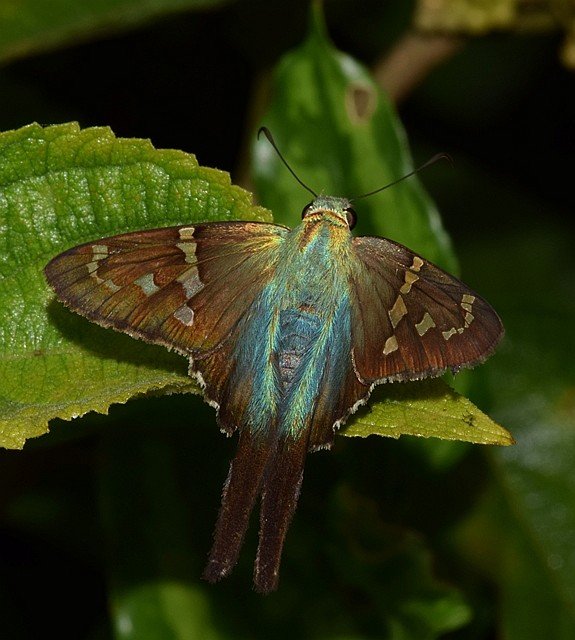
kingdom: Animalia
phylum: Arthropoda
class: Insecta
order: Lepidoptera
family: Hesperiidae
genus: Urbanus
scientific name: Urbanus proteus
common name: Long-tailed Skipper
